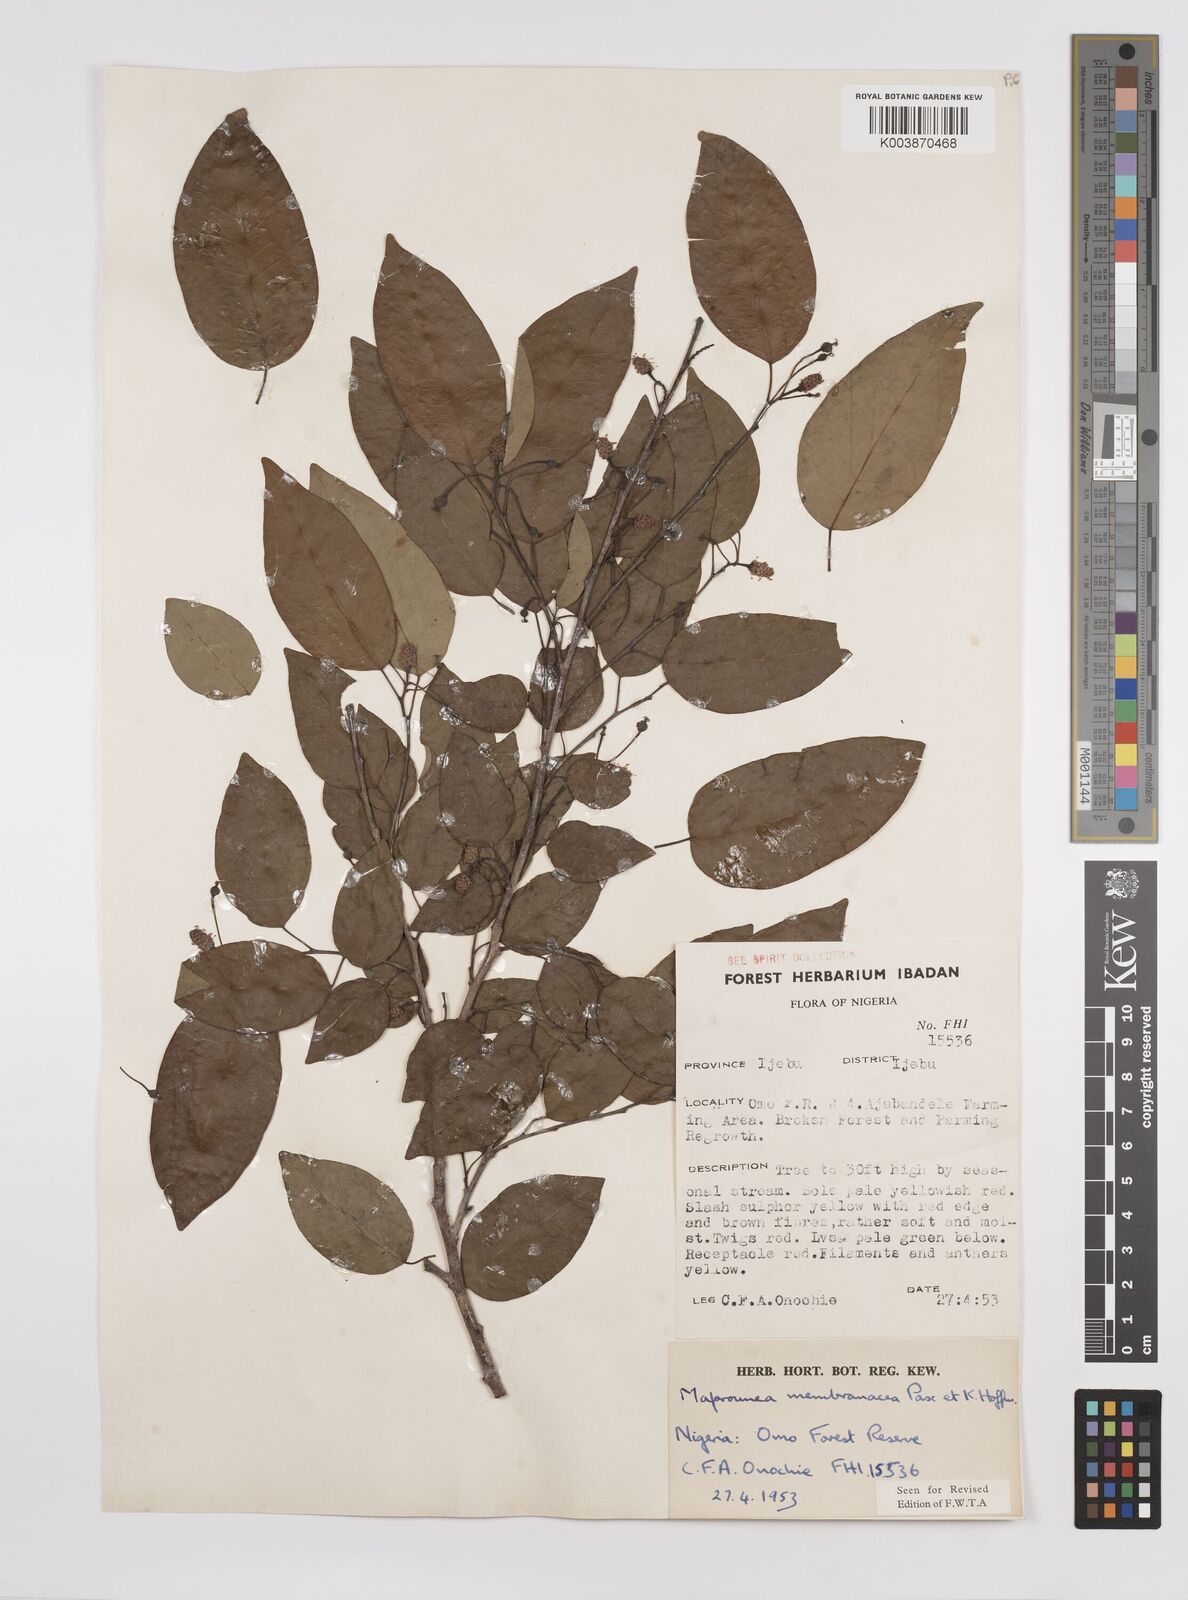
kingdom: Plantae
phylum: Tracheophyta
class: Magnoliopsida
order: Malpighiales
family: Euphorbiaceae
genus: Maprounea
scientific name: Maprounea membranacea
